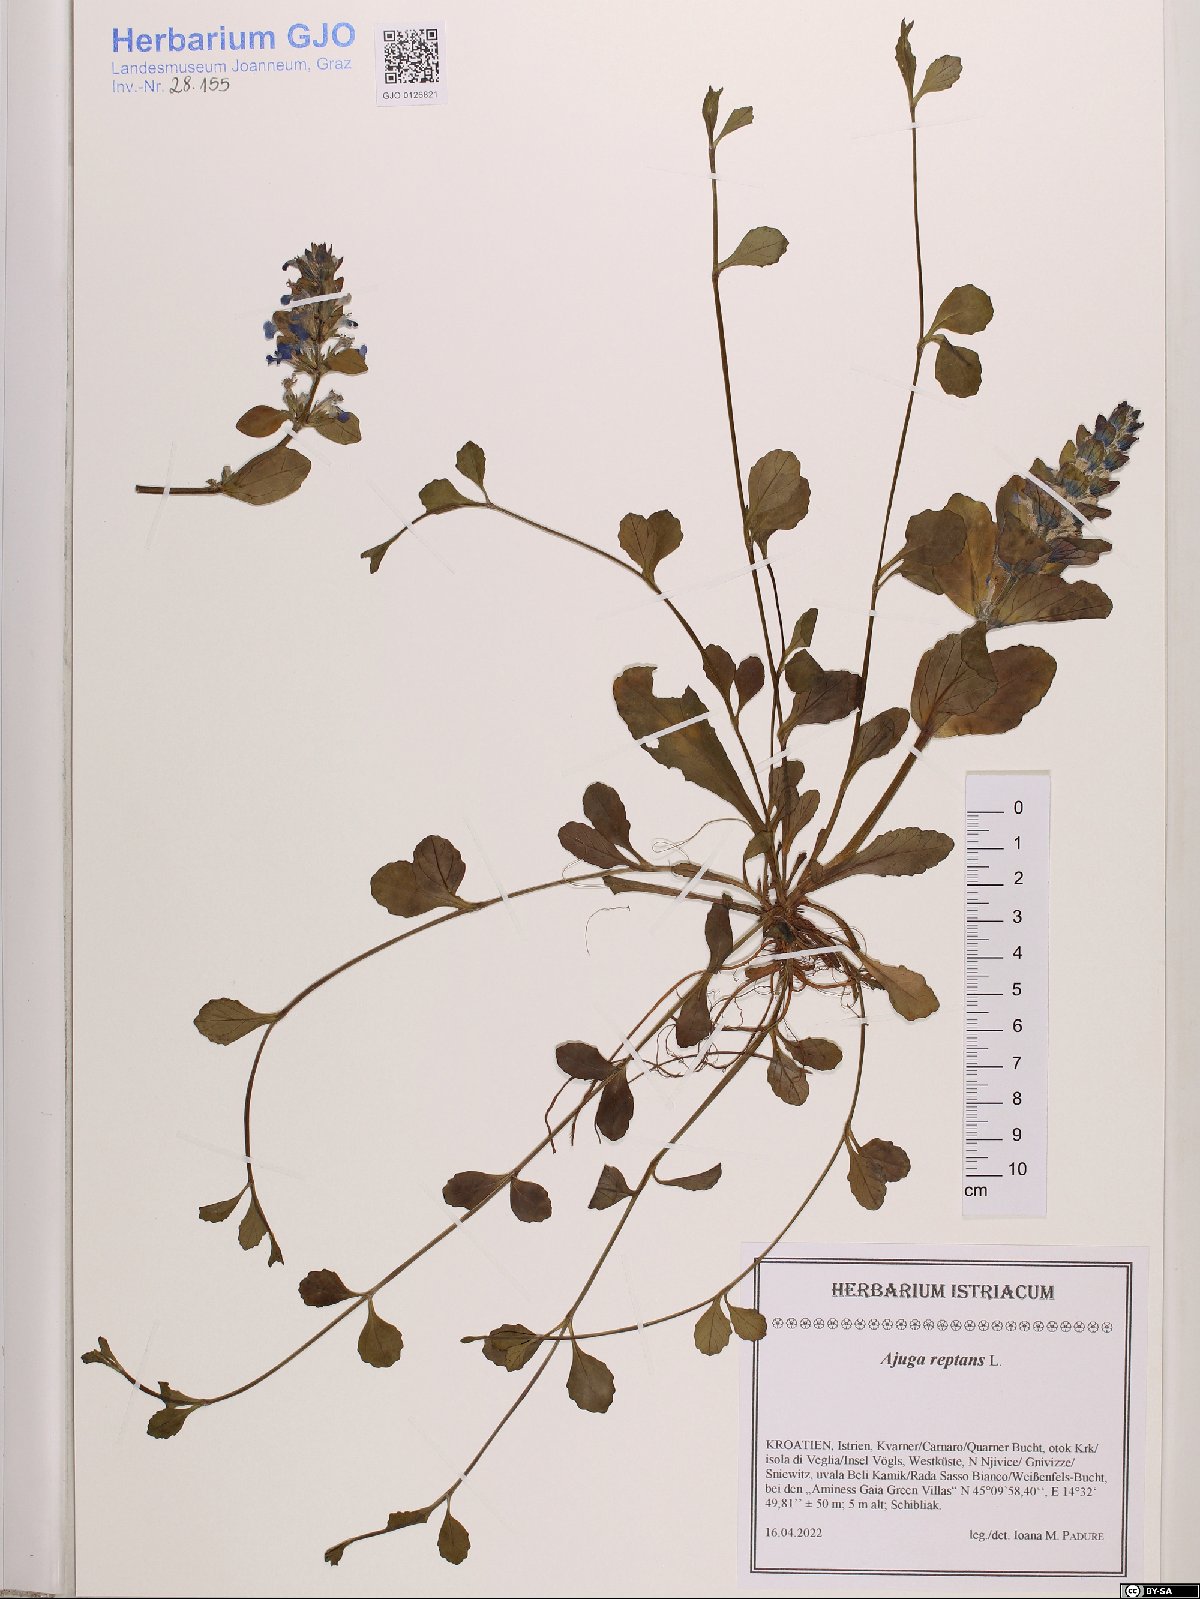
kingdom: Plantae
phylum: Tracheophyta
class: Magnoliopsida
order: Lamiales
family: Lamiaceae
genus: Ajuga
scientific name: Ajuga reptans
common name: Bugle
